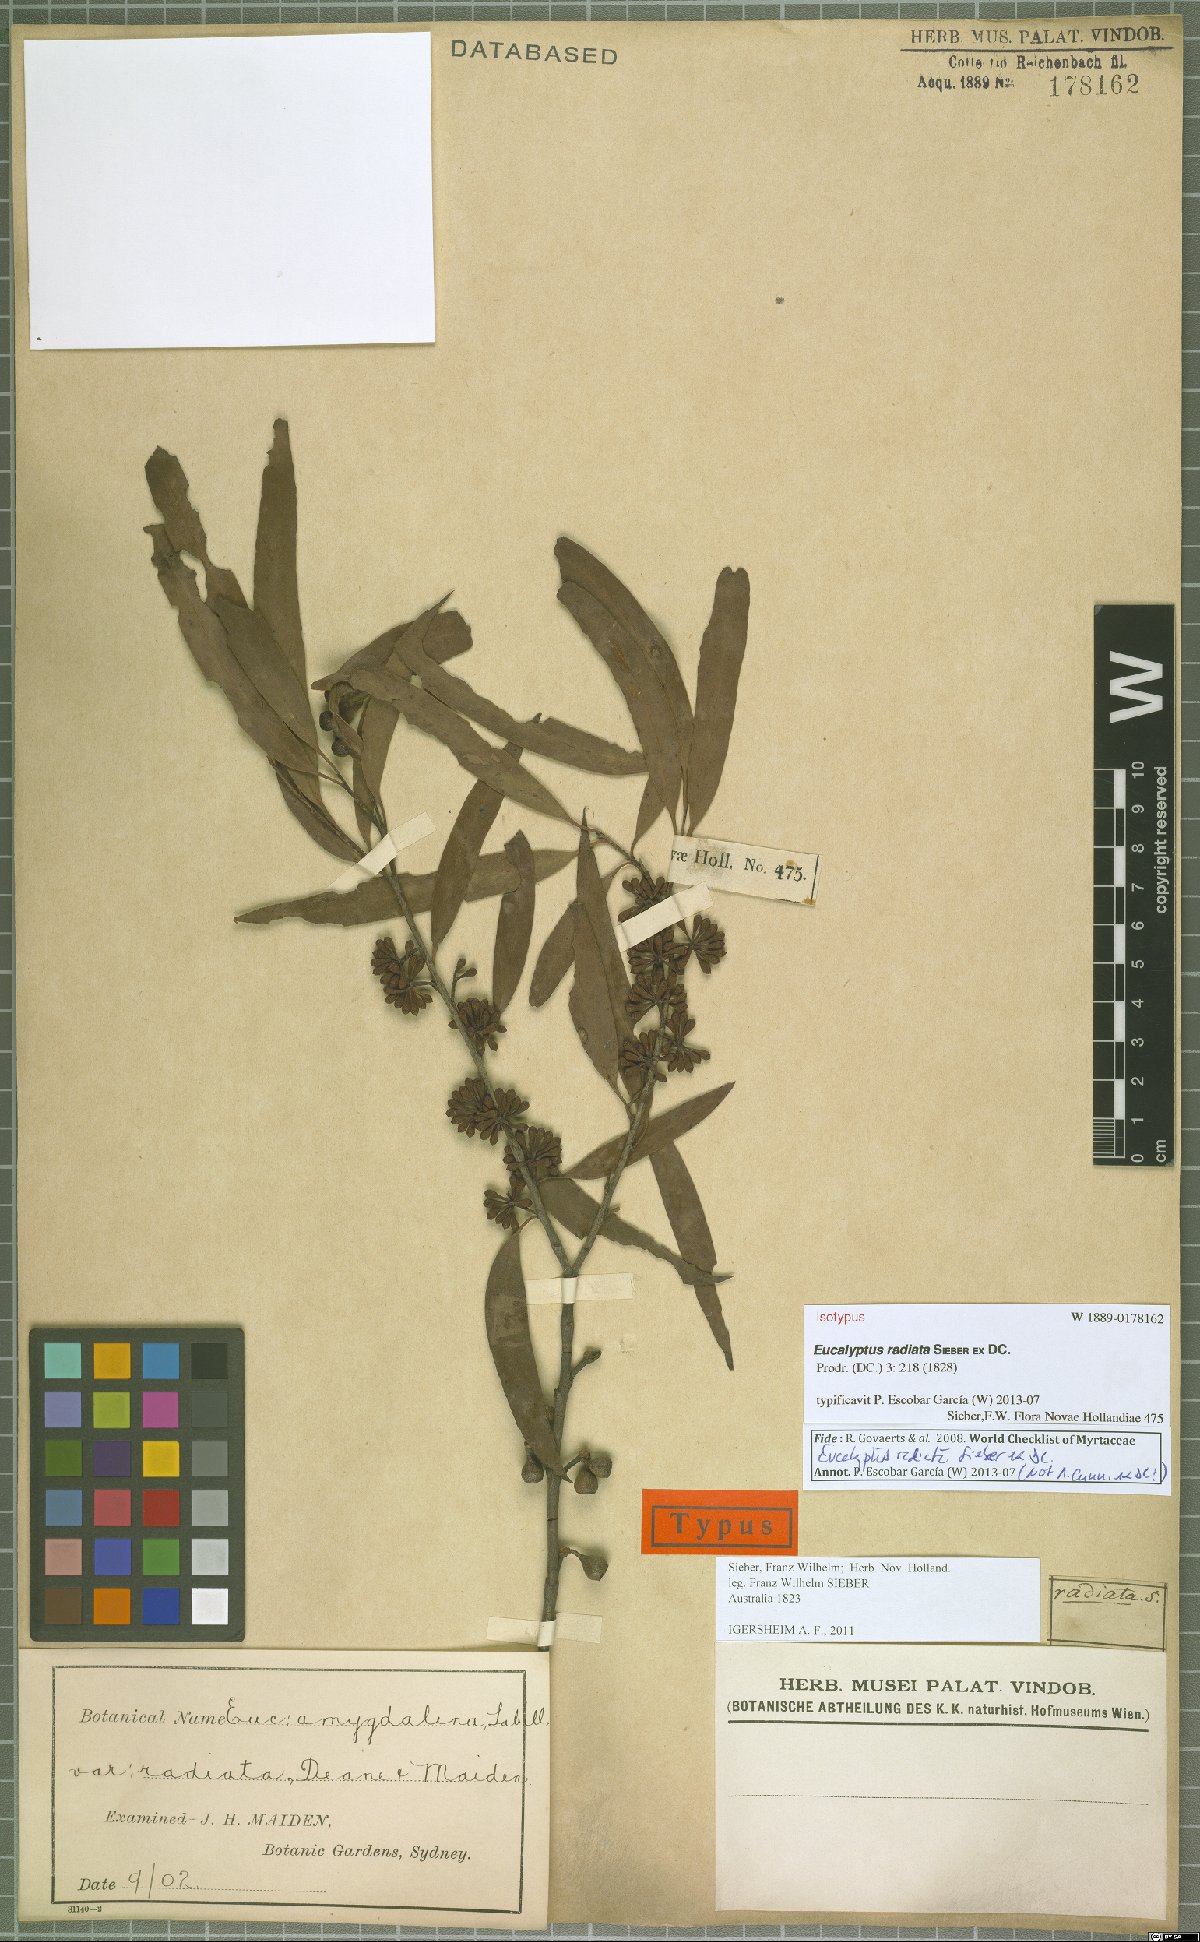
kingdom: Plantae
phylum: Tracheophyta
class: Magnoliopsida
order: Myrtales
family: Myrtaceae
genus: Eucalyptus
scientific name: Eucalyptus radiata
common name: Narrow-leaved-peppermint
